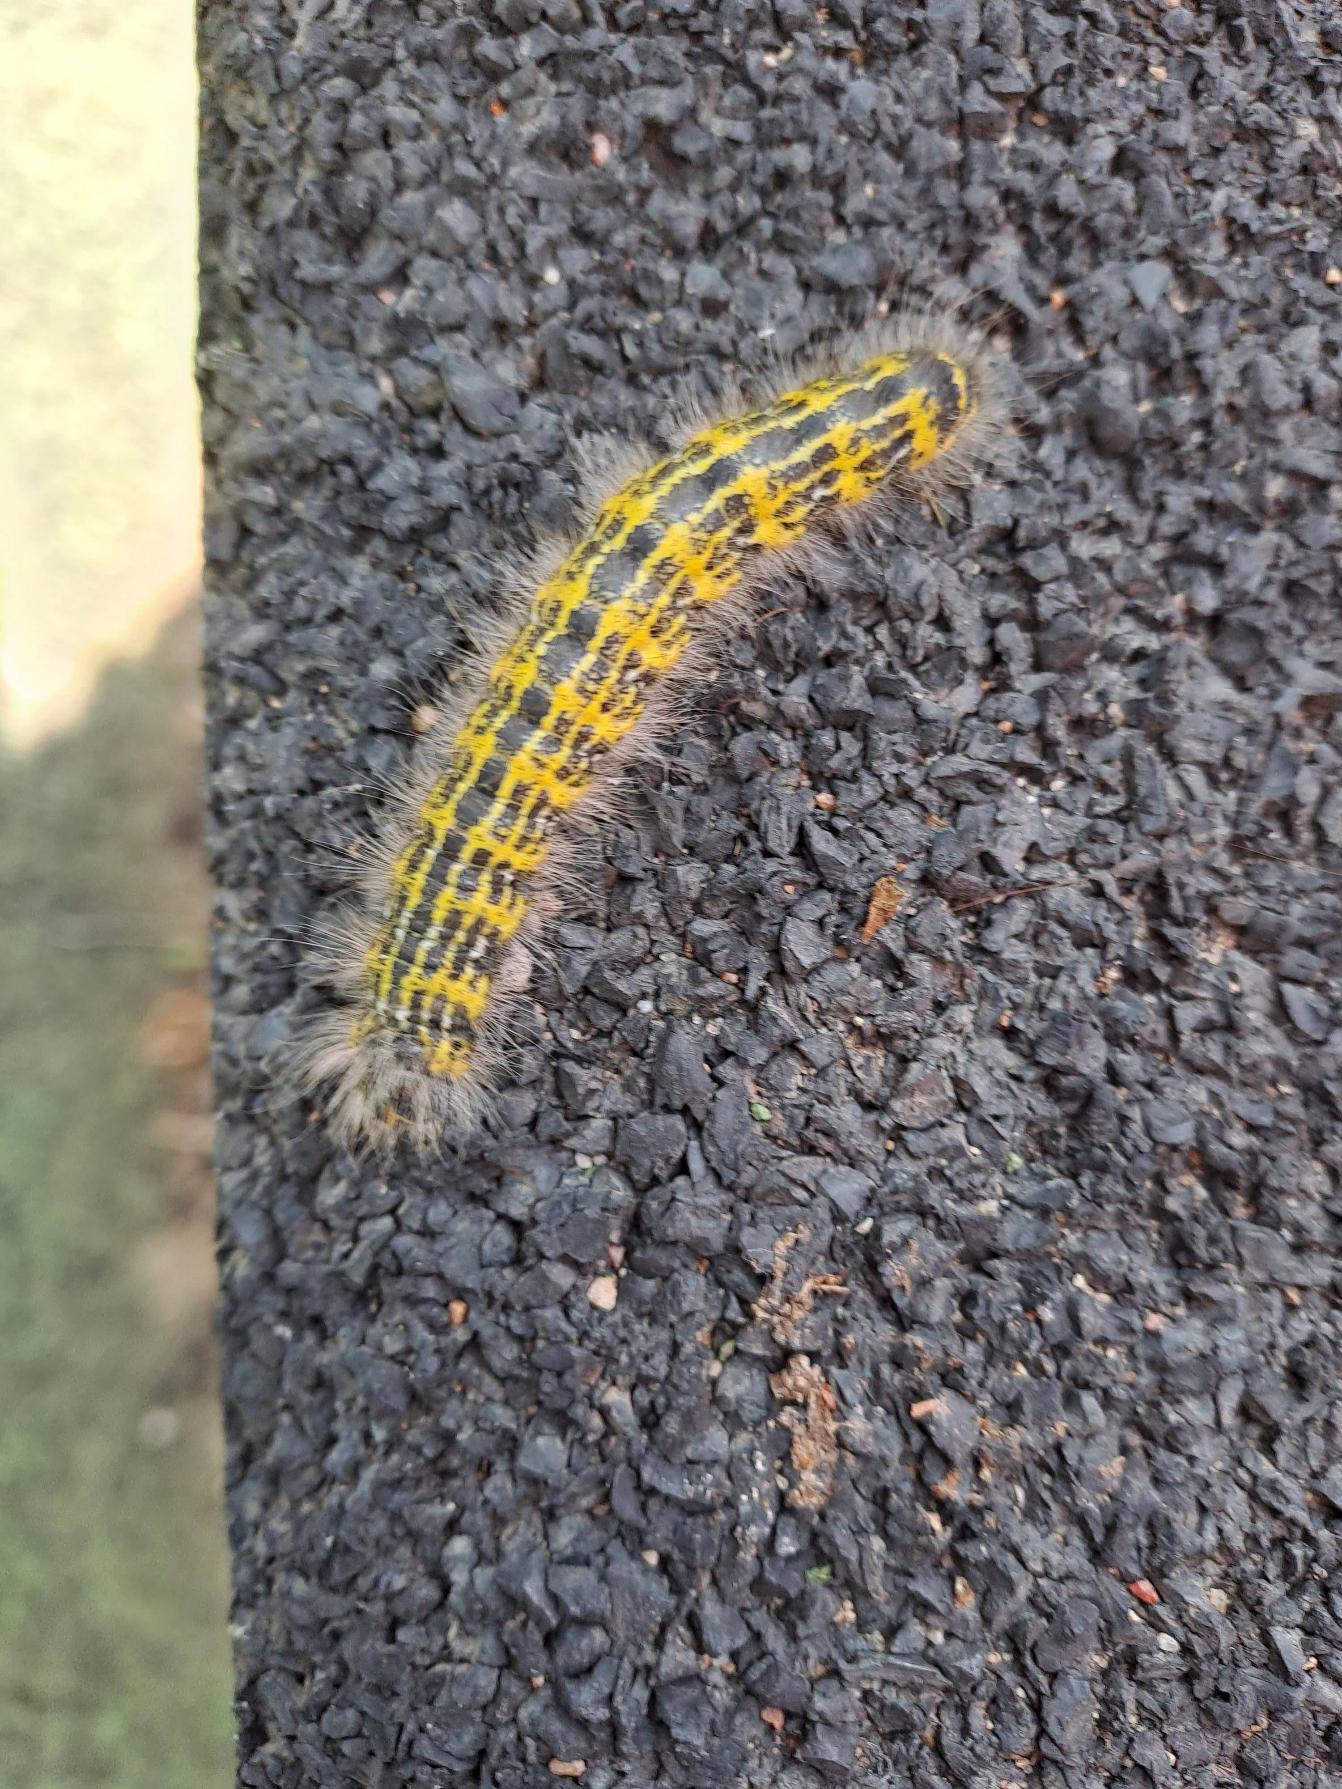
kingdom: Animalia
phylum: Arthropoda
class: Insecta
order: Lepidoptera
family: Notodontidae
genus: Phalera
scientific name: Phalera bucephala
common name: Måneplet
